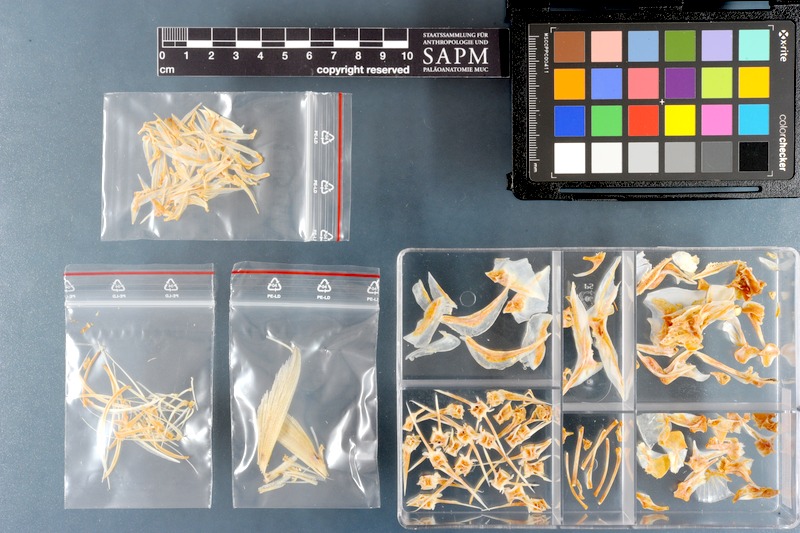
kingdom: Animalia
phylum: Chordata
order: Perciformes
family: Carangidae
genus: Gnathanodon
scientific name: Gnathanodon speciosus
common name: Golden toothless trevally
